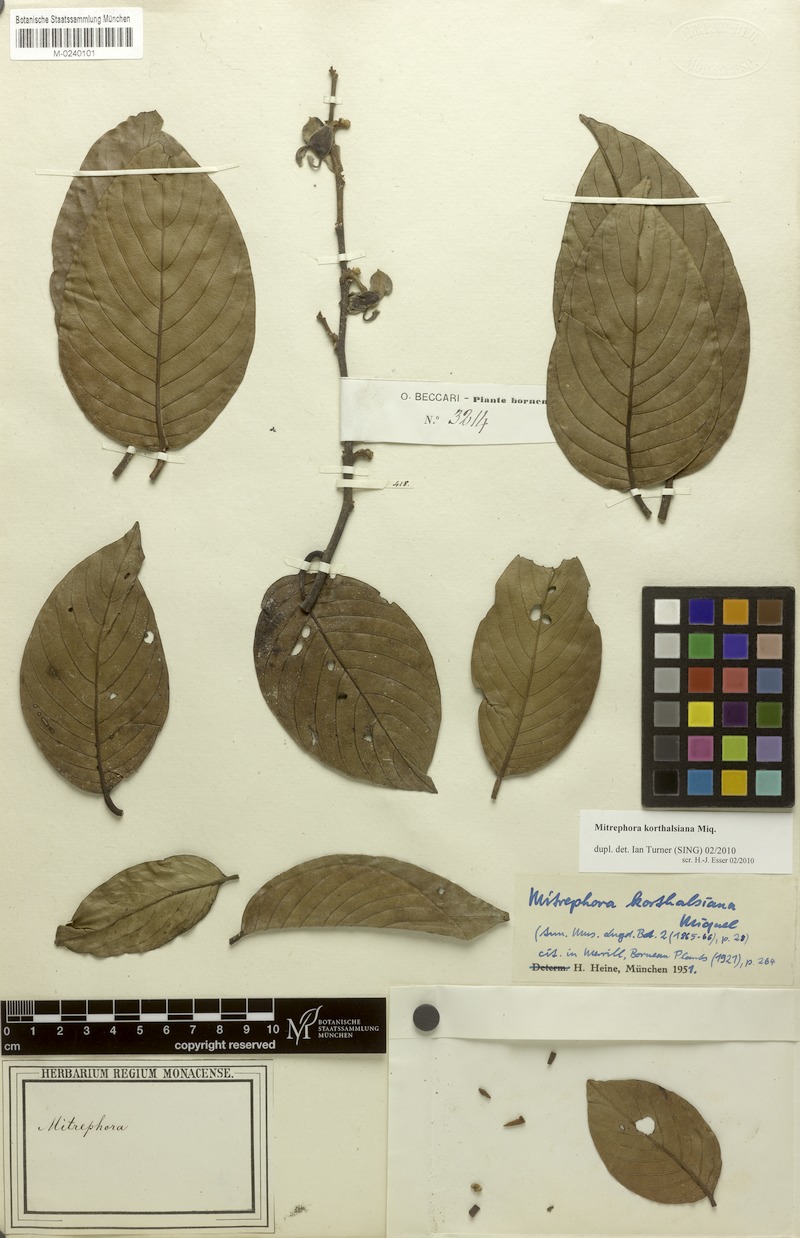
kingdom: Plantae
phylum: Tracheophyta
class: Magnoliopsida
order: Magnoliales
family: Annonaceae
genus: Mitrephora
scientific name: Mitrephora korthalsiana
